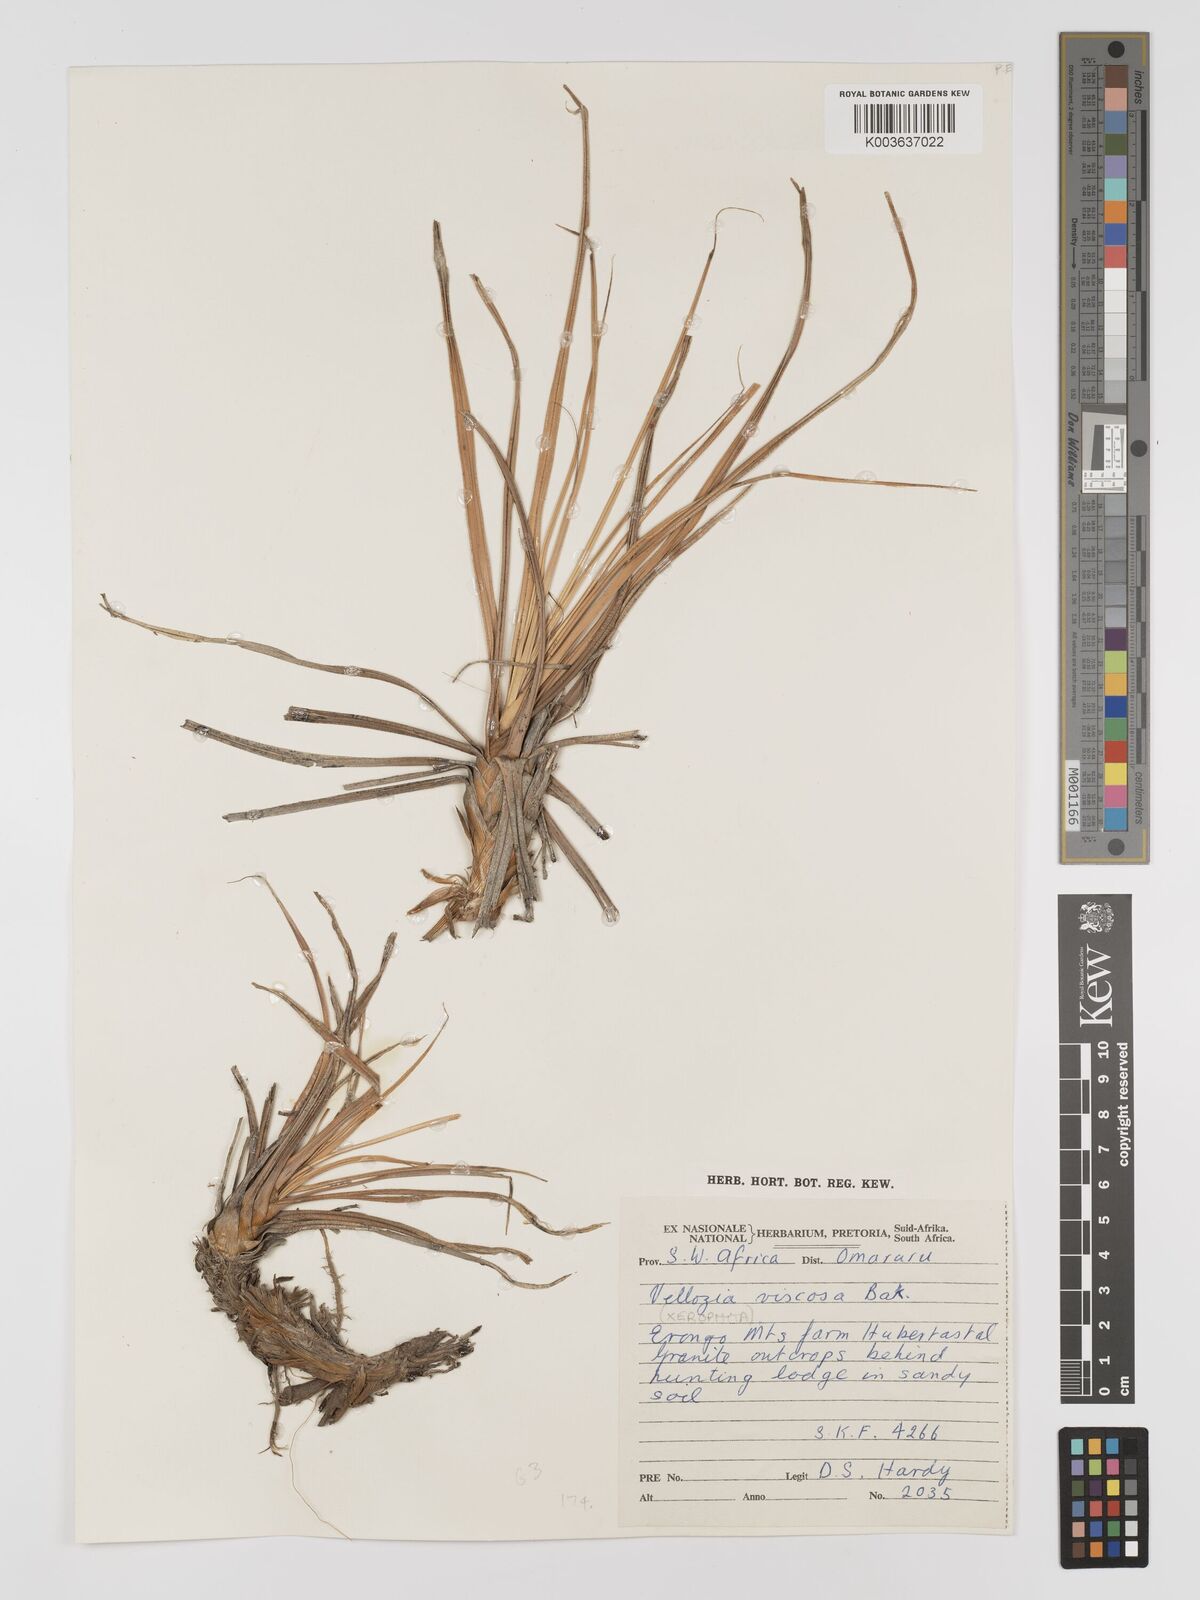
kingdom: Plantae
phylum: Tracheophyta
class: Liliopsida
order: Pandanales
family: Velloziaceae
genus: Xerophyta
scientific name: Xerophyta viscosa
